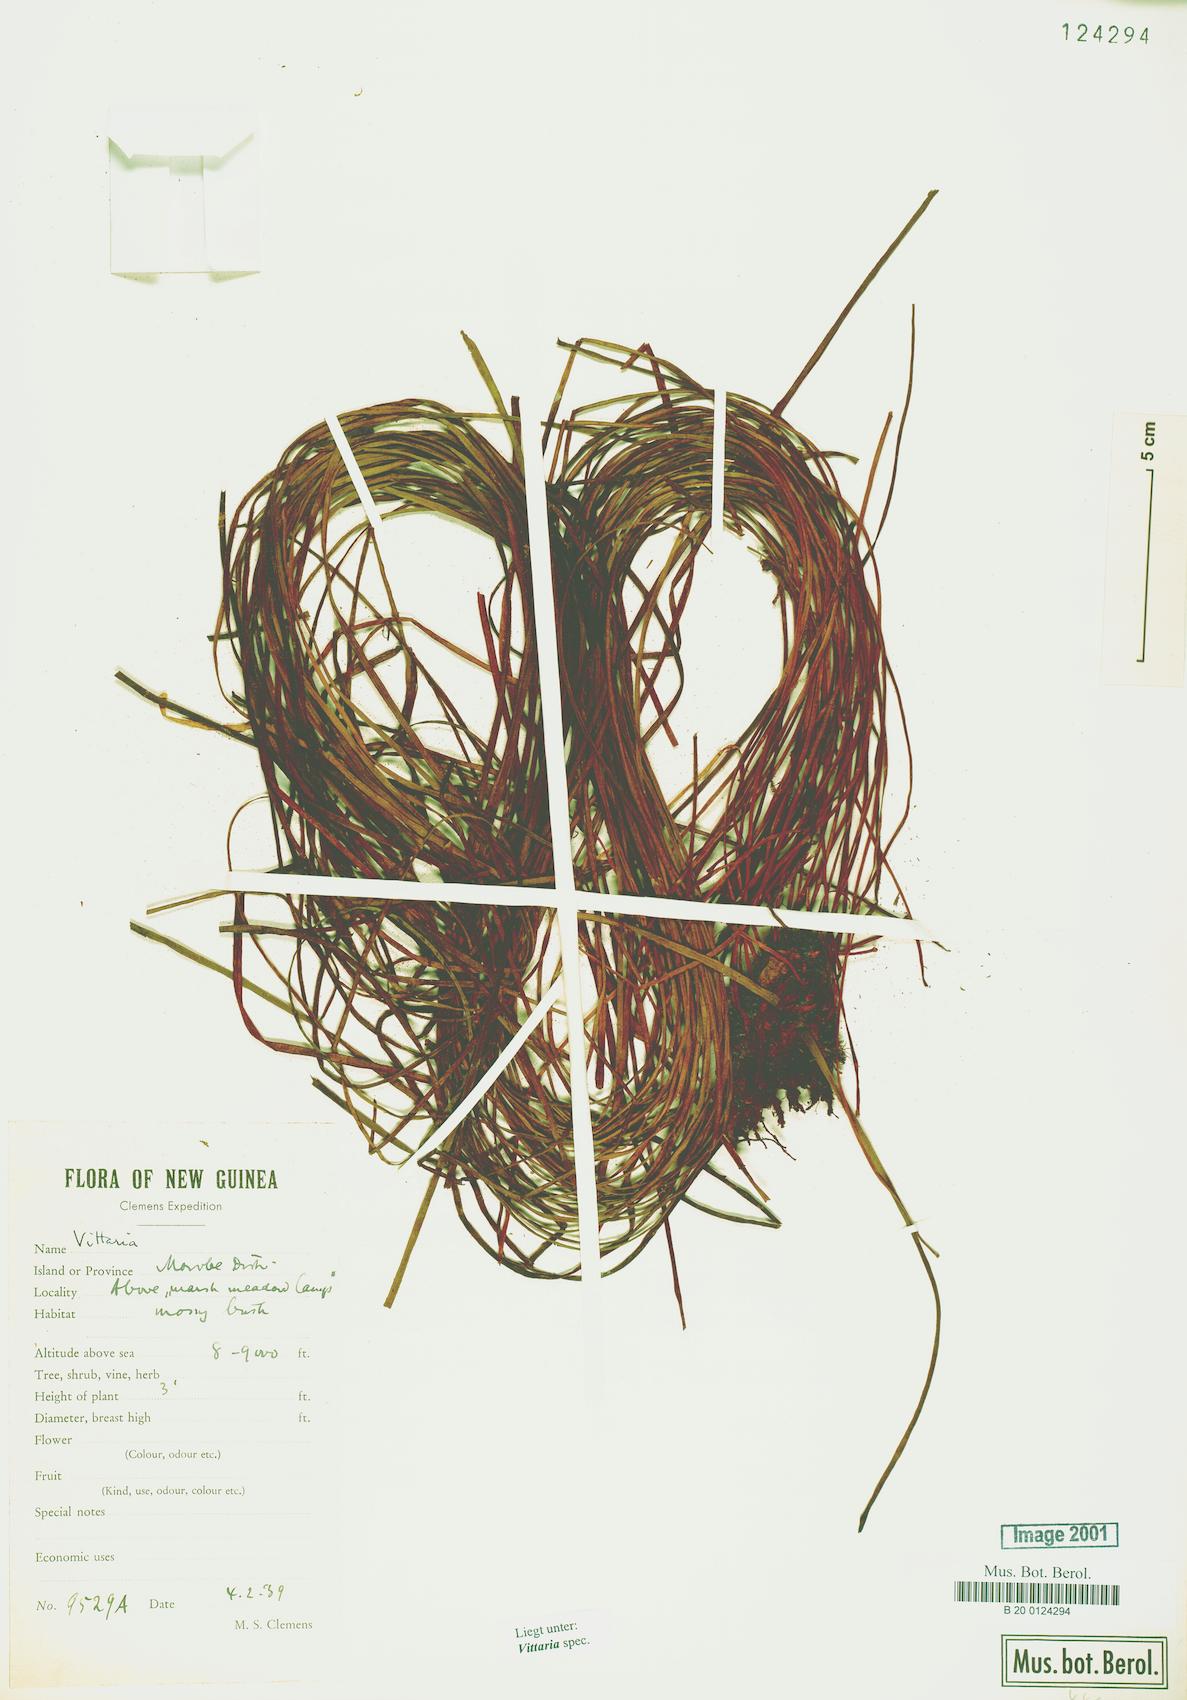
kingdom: Plantae
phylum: Tracheophyta
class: Polypodiopsida
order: Polypodiales
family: Pteridaceae
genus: Vittaria
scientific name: Vittaria
